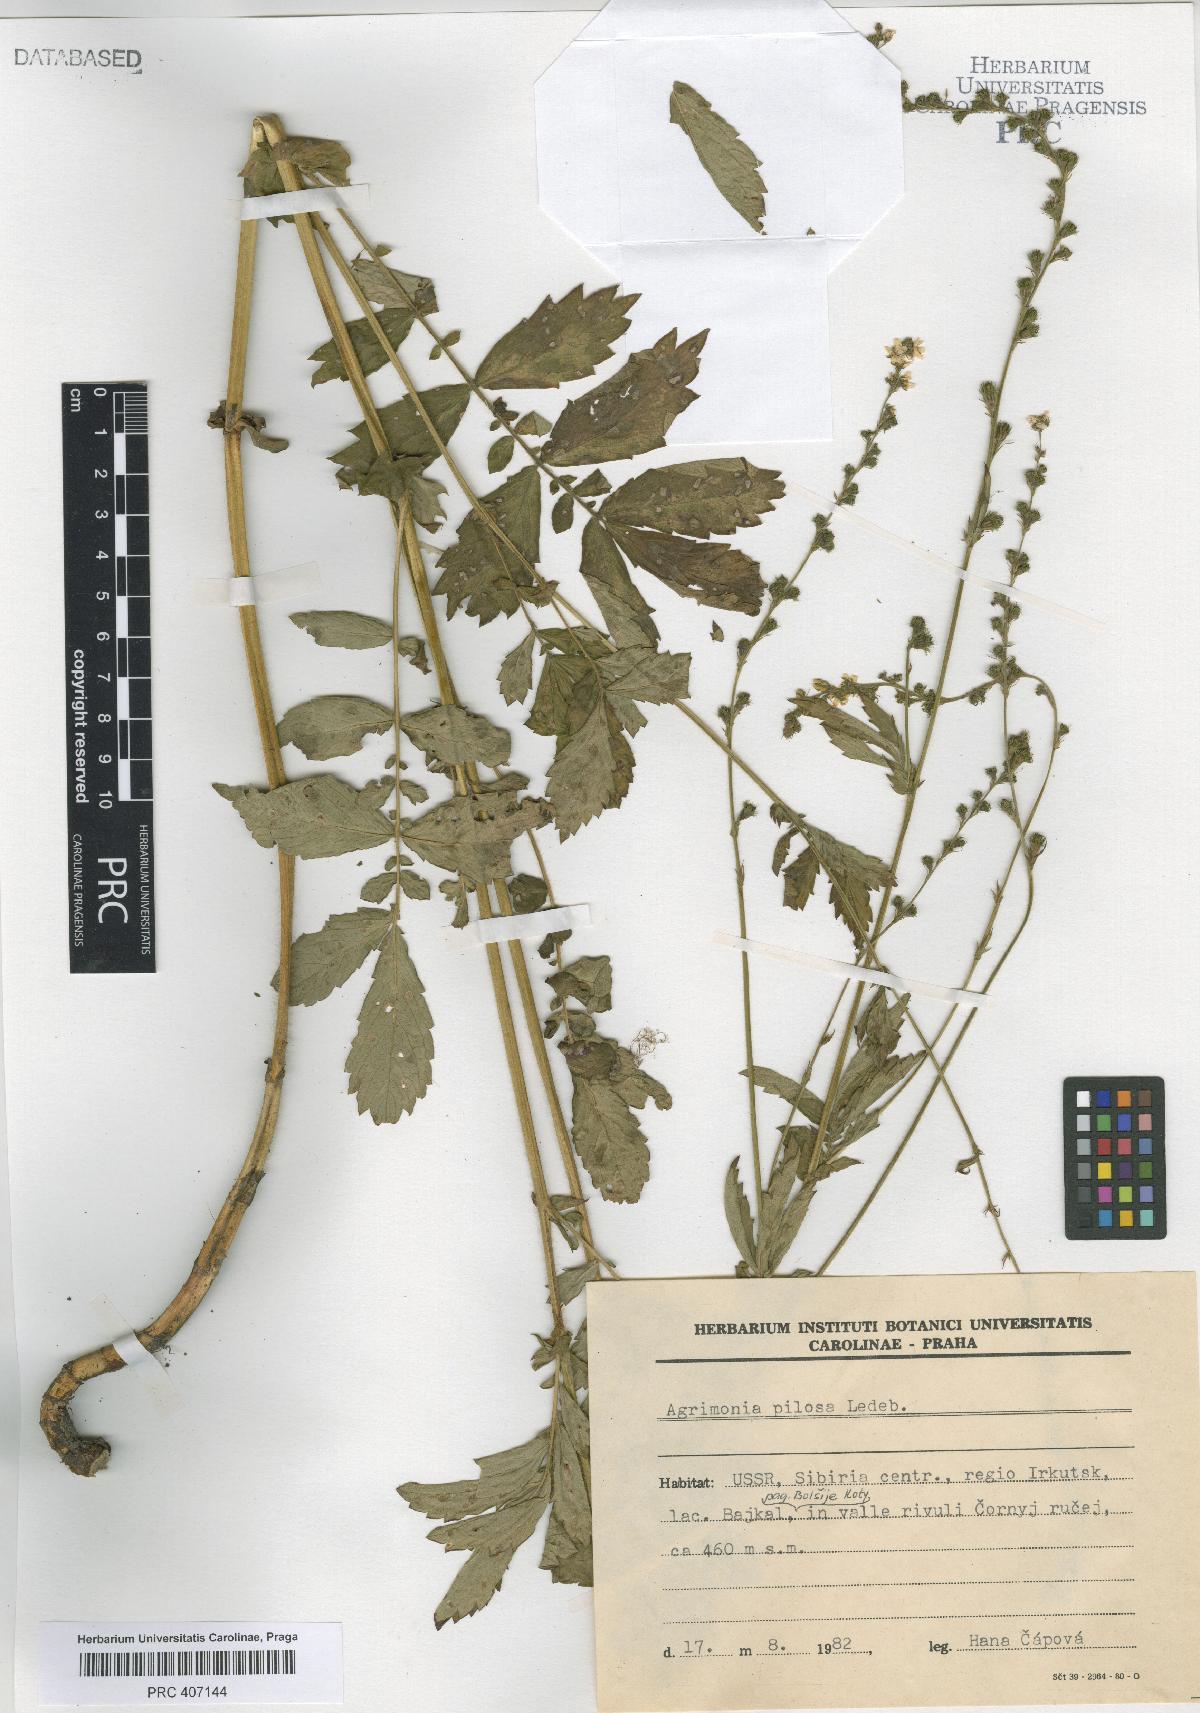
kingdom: Plantae
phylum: Tracheophyta
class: Magnoliopsida
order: Rosales
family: Rosaceae
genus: Agrimonia
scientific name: Agrimonia pilosa
